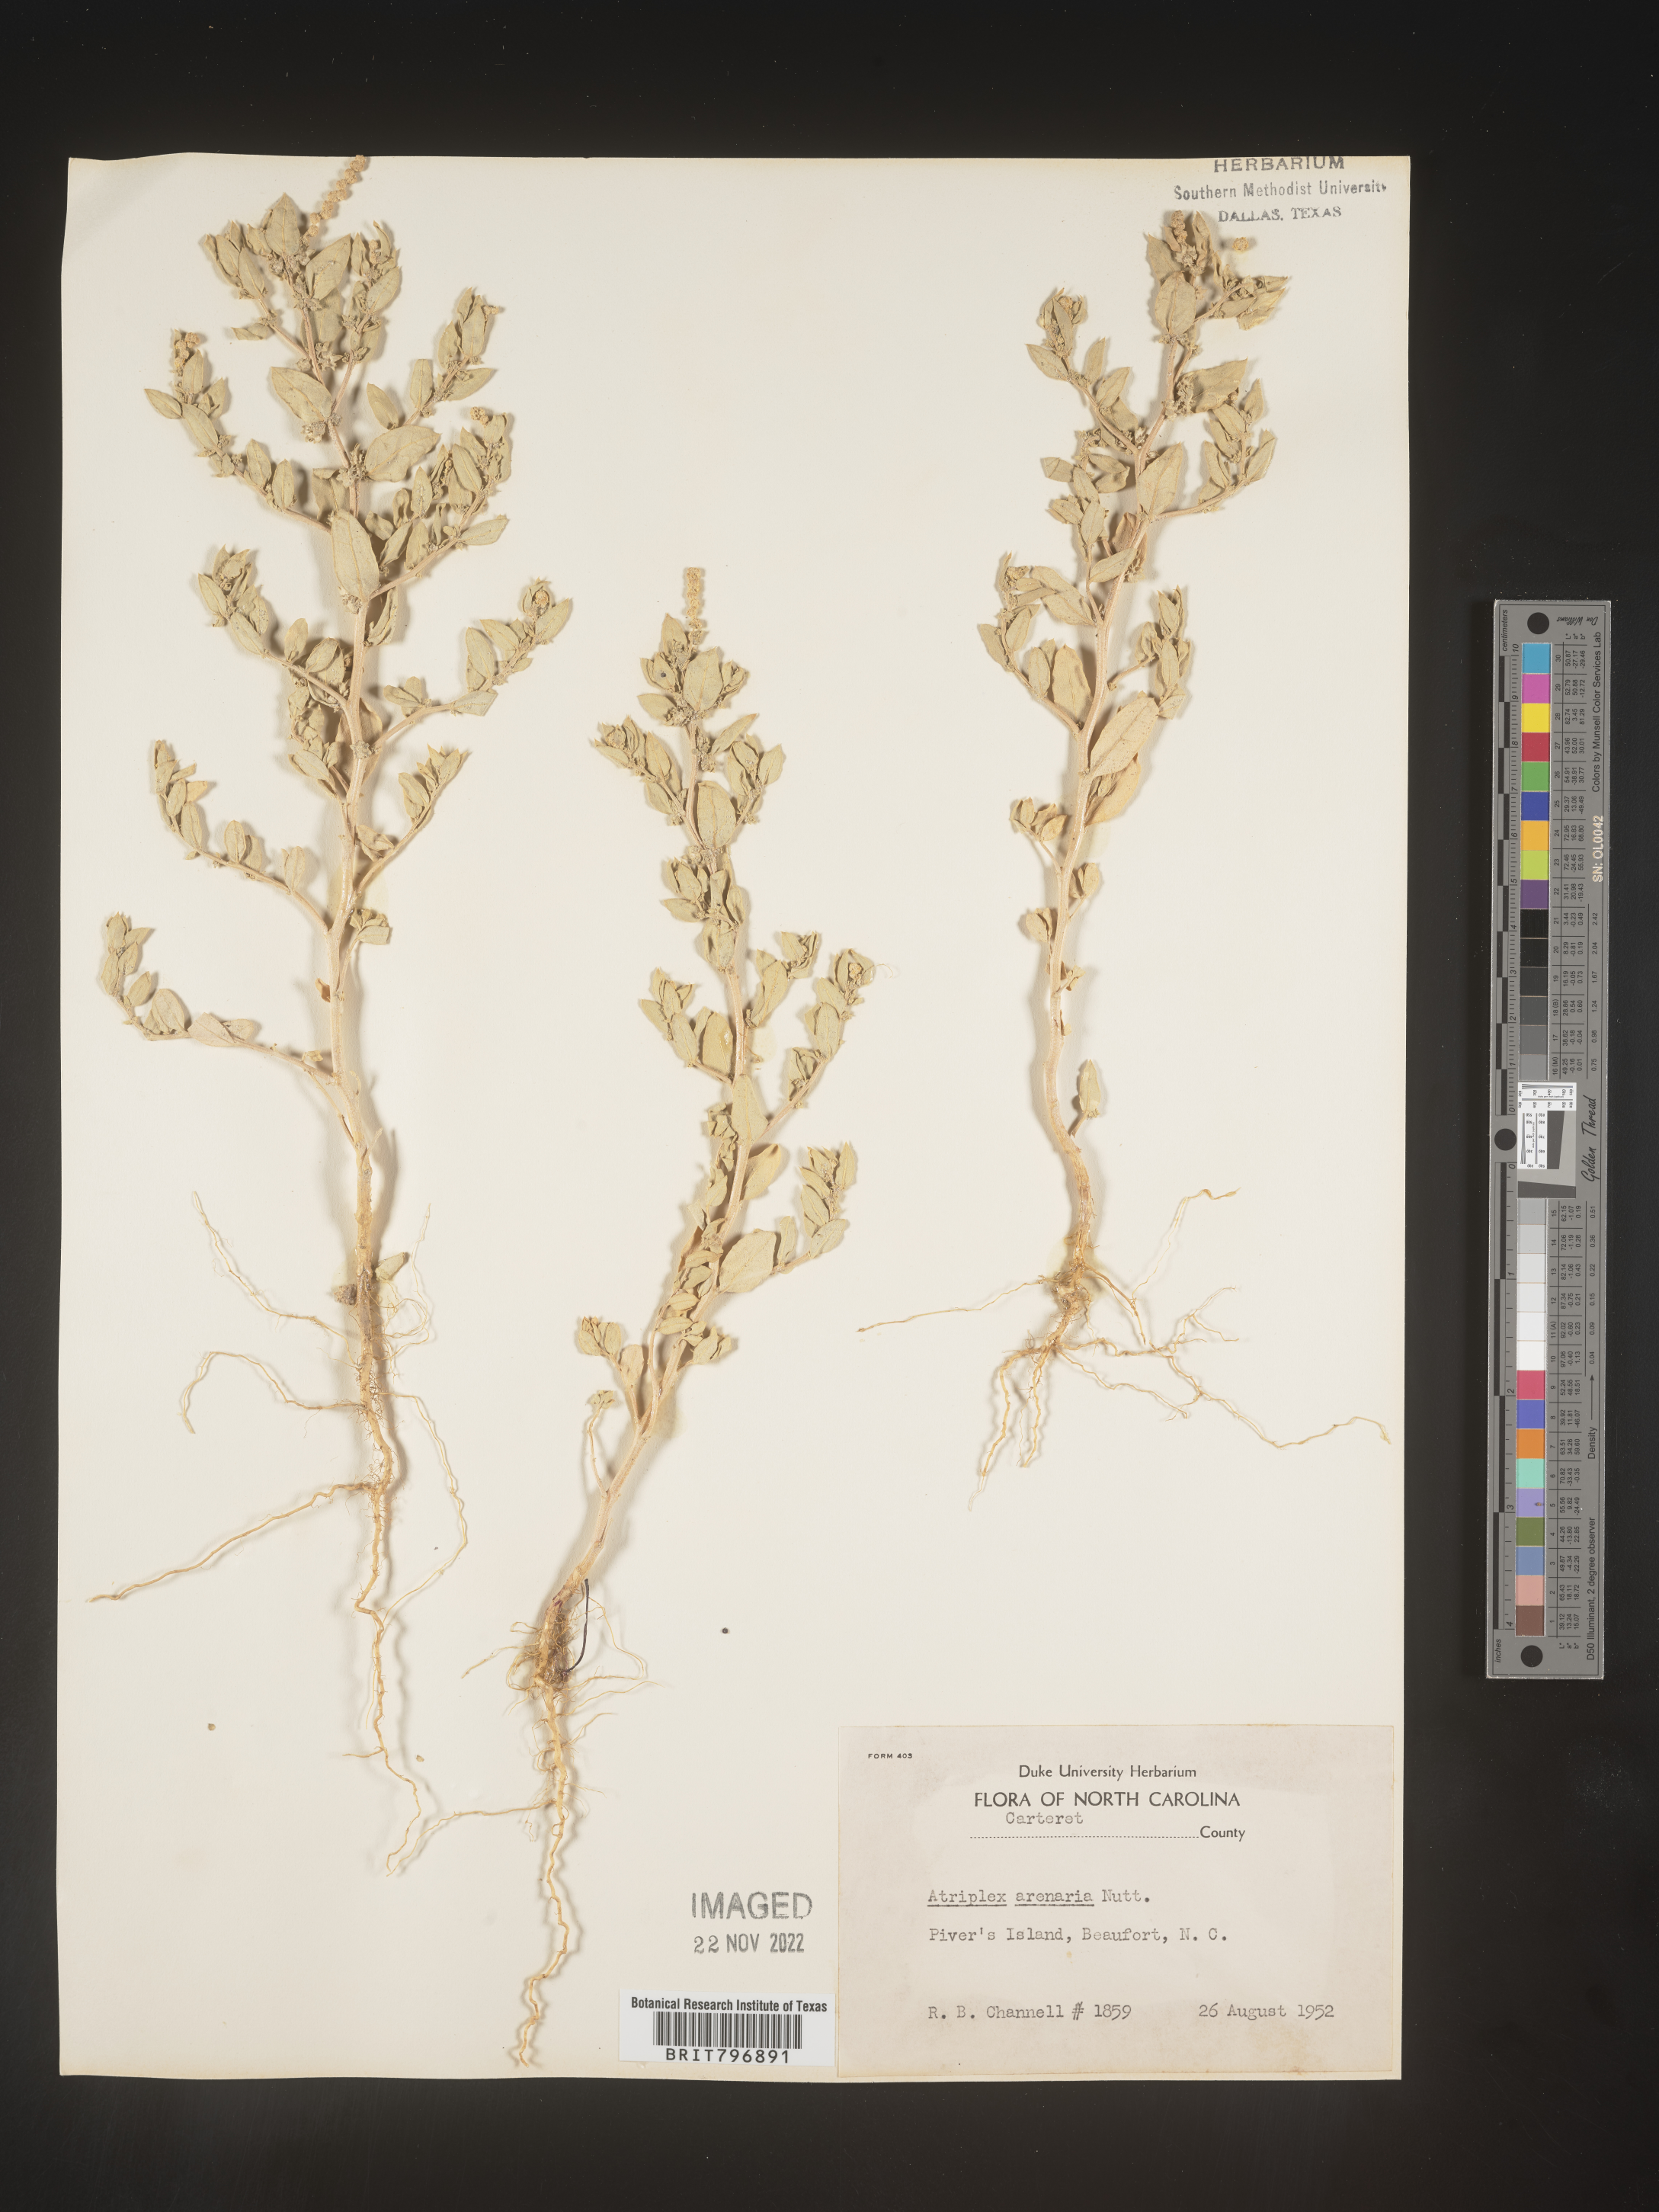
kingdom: Plantae
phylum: Tracheophyta
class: Magnoliopsida
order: Caryophyllales
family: Amaranthaceae
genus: Atriplex
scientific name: Atriplex mucronata
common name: Quelite
